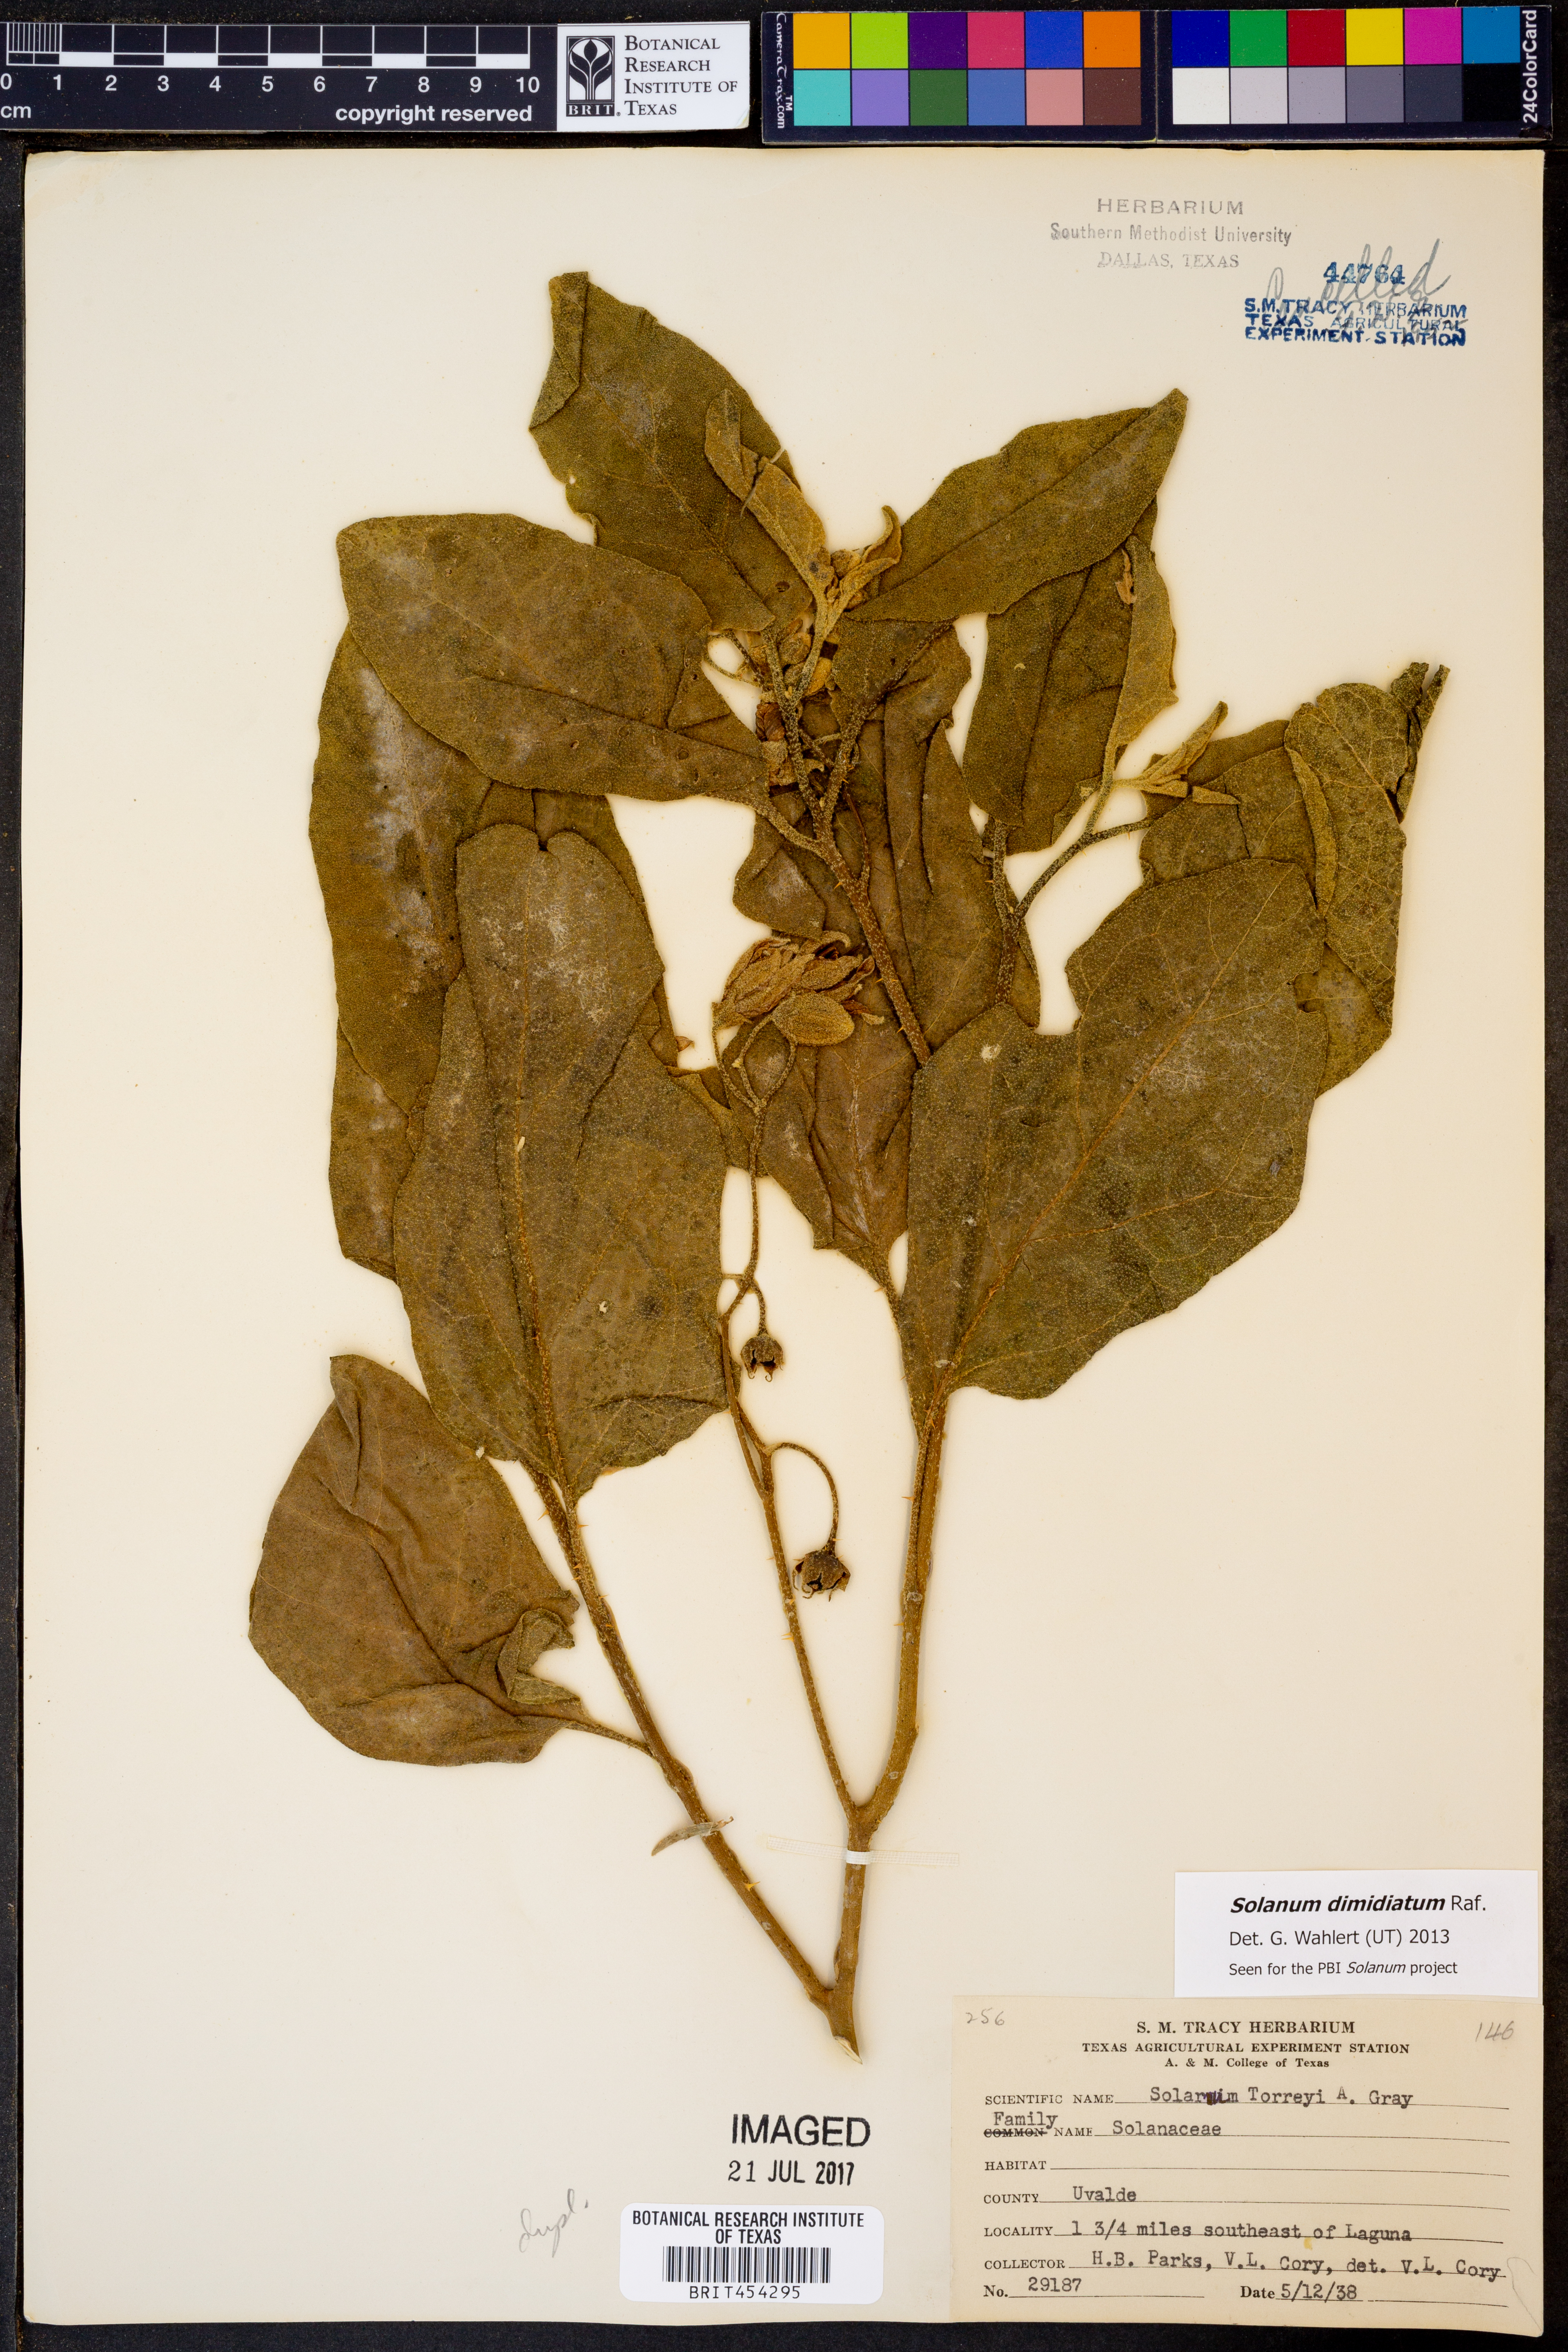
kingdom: Plantae
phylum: Tracheophyta
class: Magnoliopsida
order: Solanales
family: Solanaceae
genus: Solanum
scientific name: Solanum dimidiatum
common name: Carolina horse-nettle
